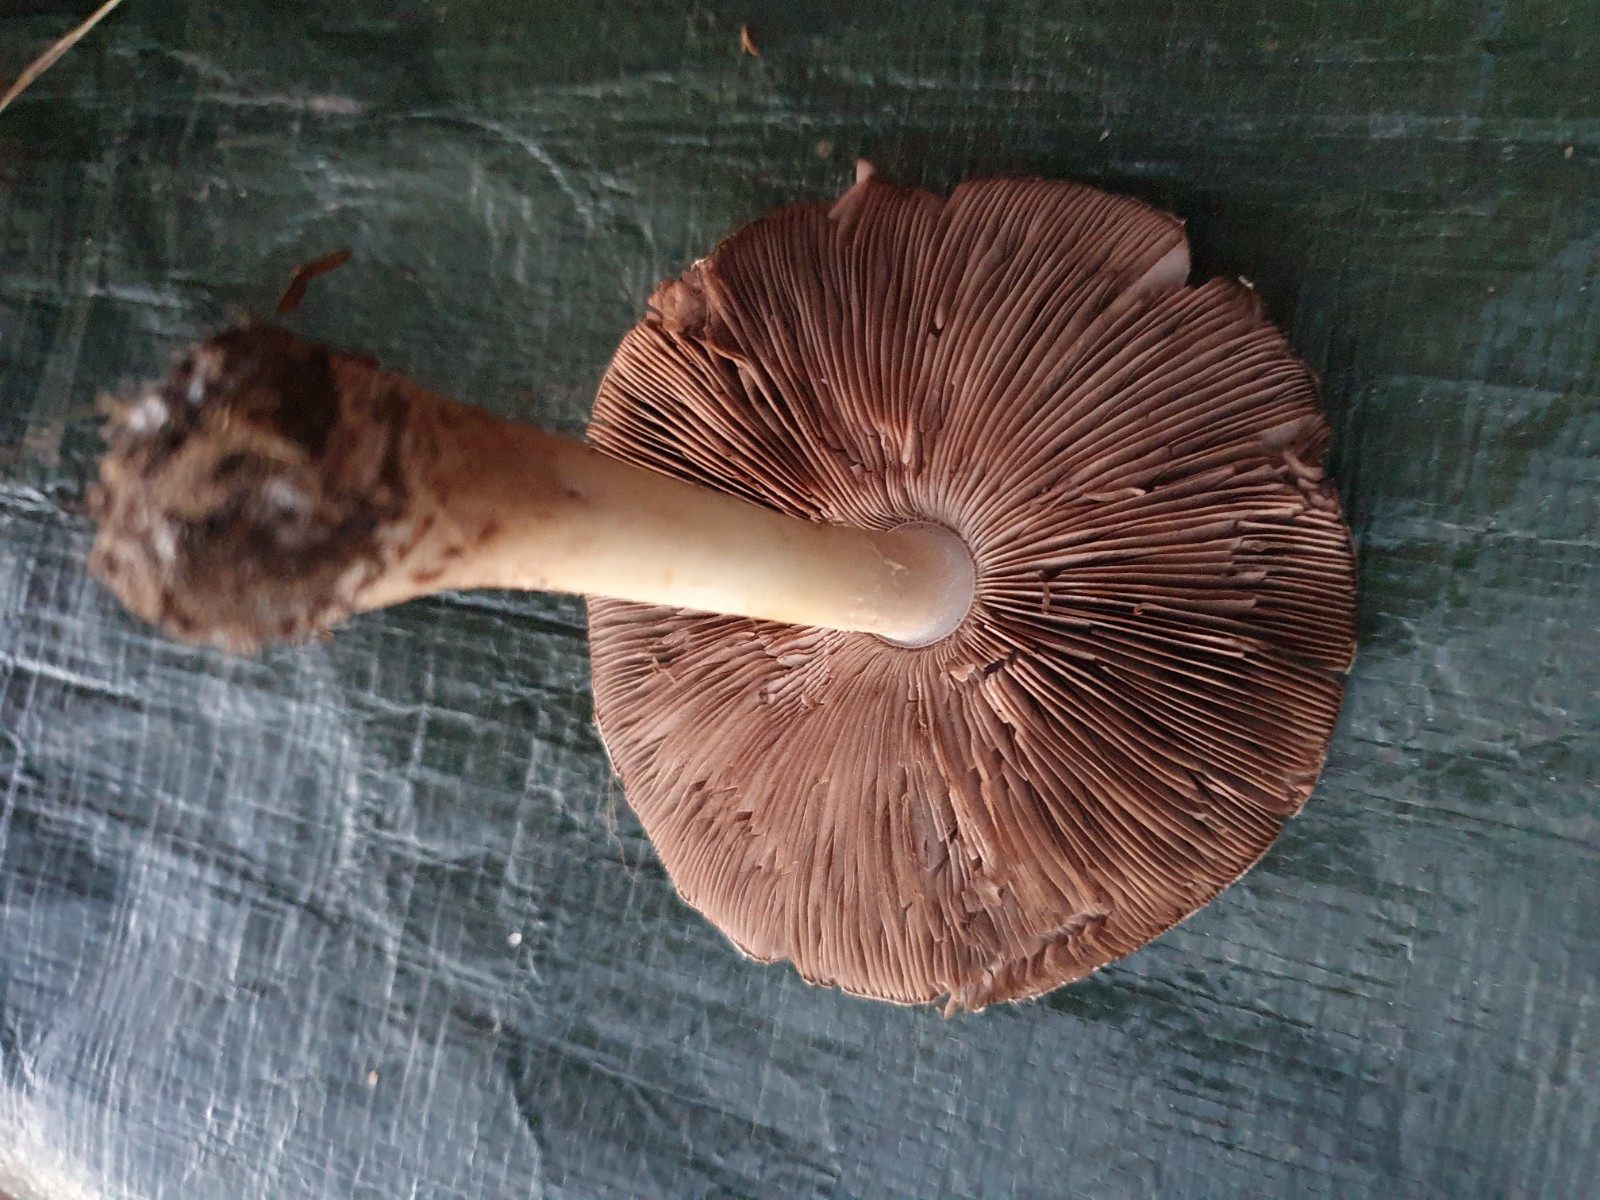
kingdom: Fungi
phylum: Basidiomycota
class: Agaricomycetes
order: Agaricales
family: Agaricaceae
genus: Agaricus
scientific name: Agaricus
